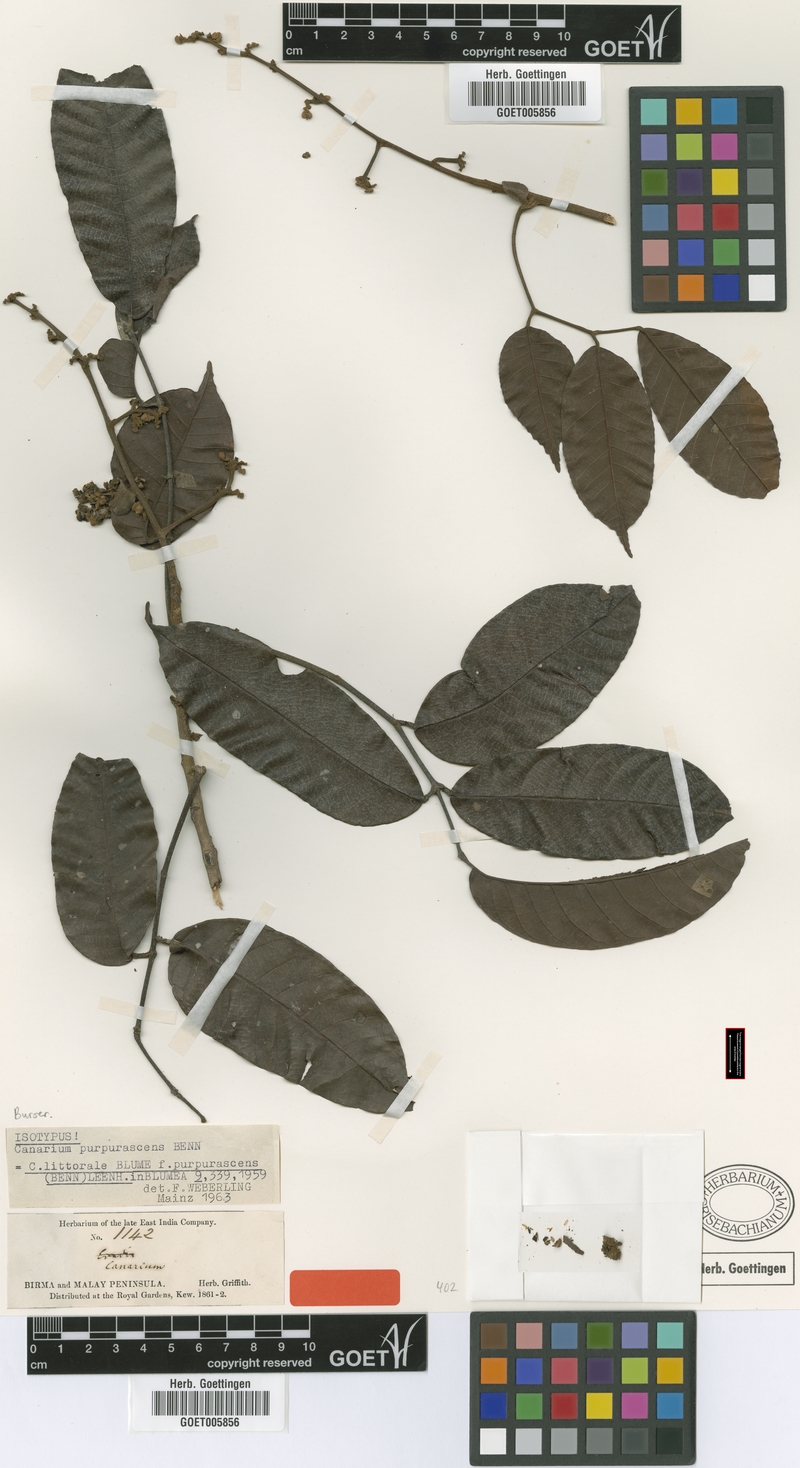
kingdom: Plantae
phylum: Tracheophyta
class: Magnoliopsida
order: Sapindales
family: Burseraceae
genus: Canarium
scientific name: Canarium littorale
